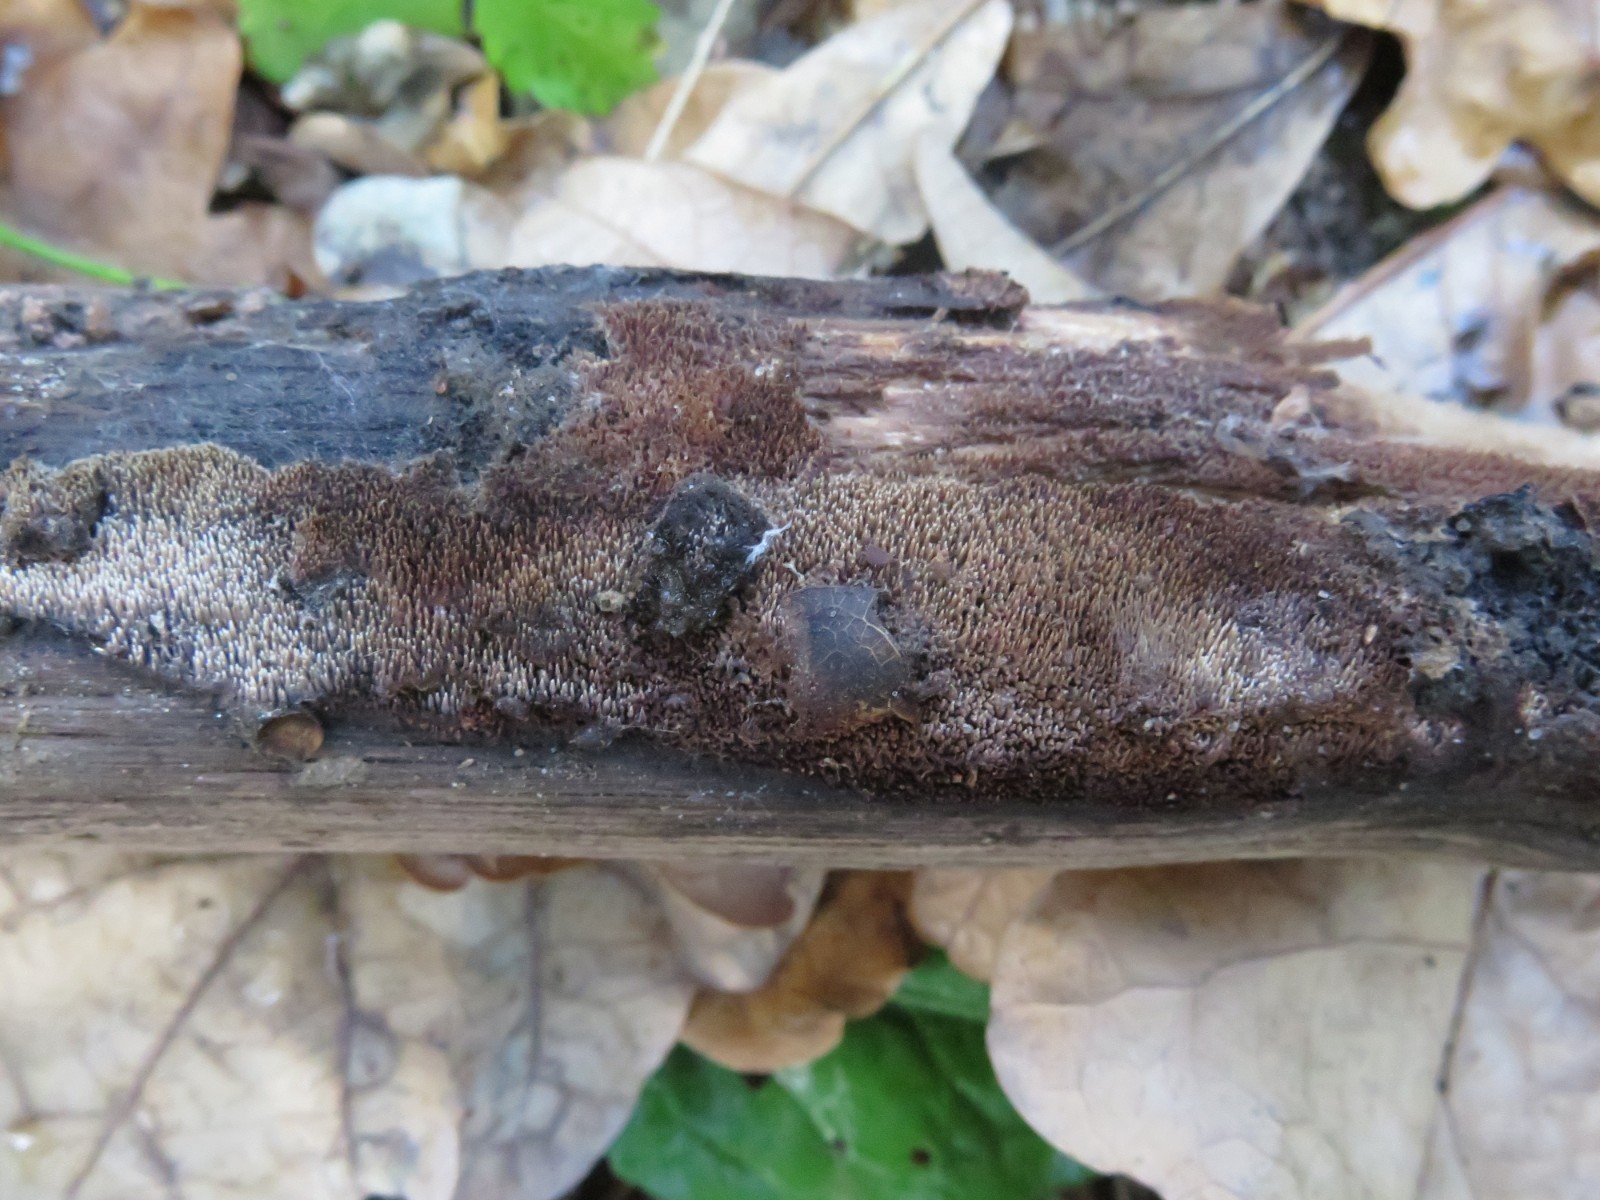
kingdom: Fungi
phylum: Basidiomycota
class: Agaricomycetes
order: Polyporales
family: Meruliaceae
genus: Mycoacia
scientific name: Mycoacia fuscoatra
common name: mørk vokspig
